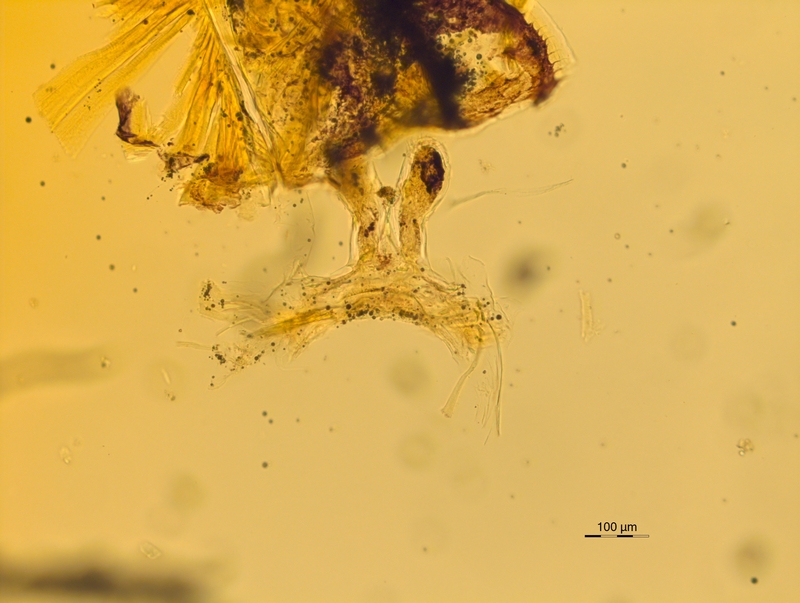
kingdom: Animalia
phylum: Arthropoda
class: Diplopoda
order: Chordeumatida
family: Attemsiidae
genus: Dendromonomeron
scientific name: Dendromonomeron lignivagum
